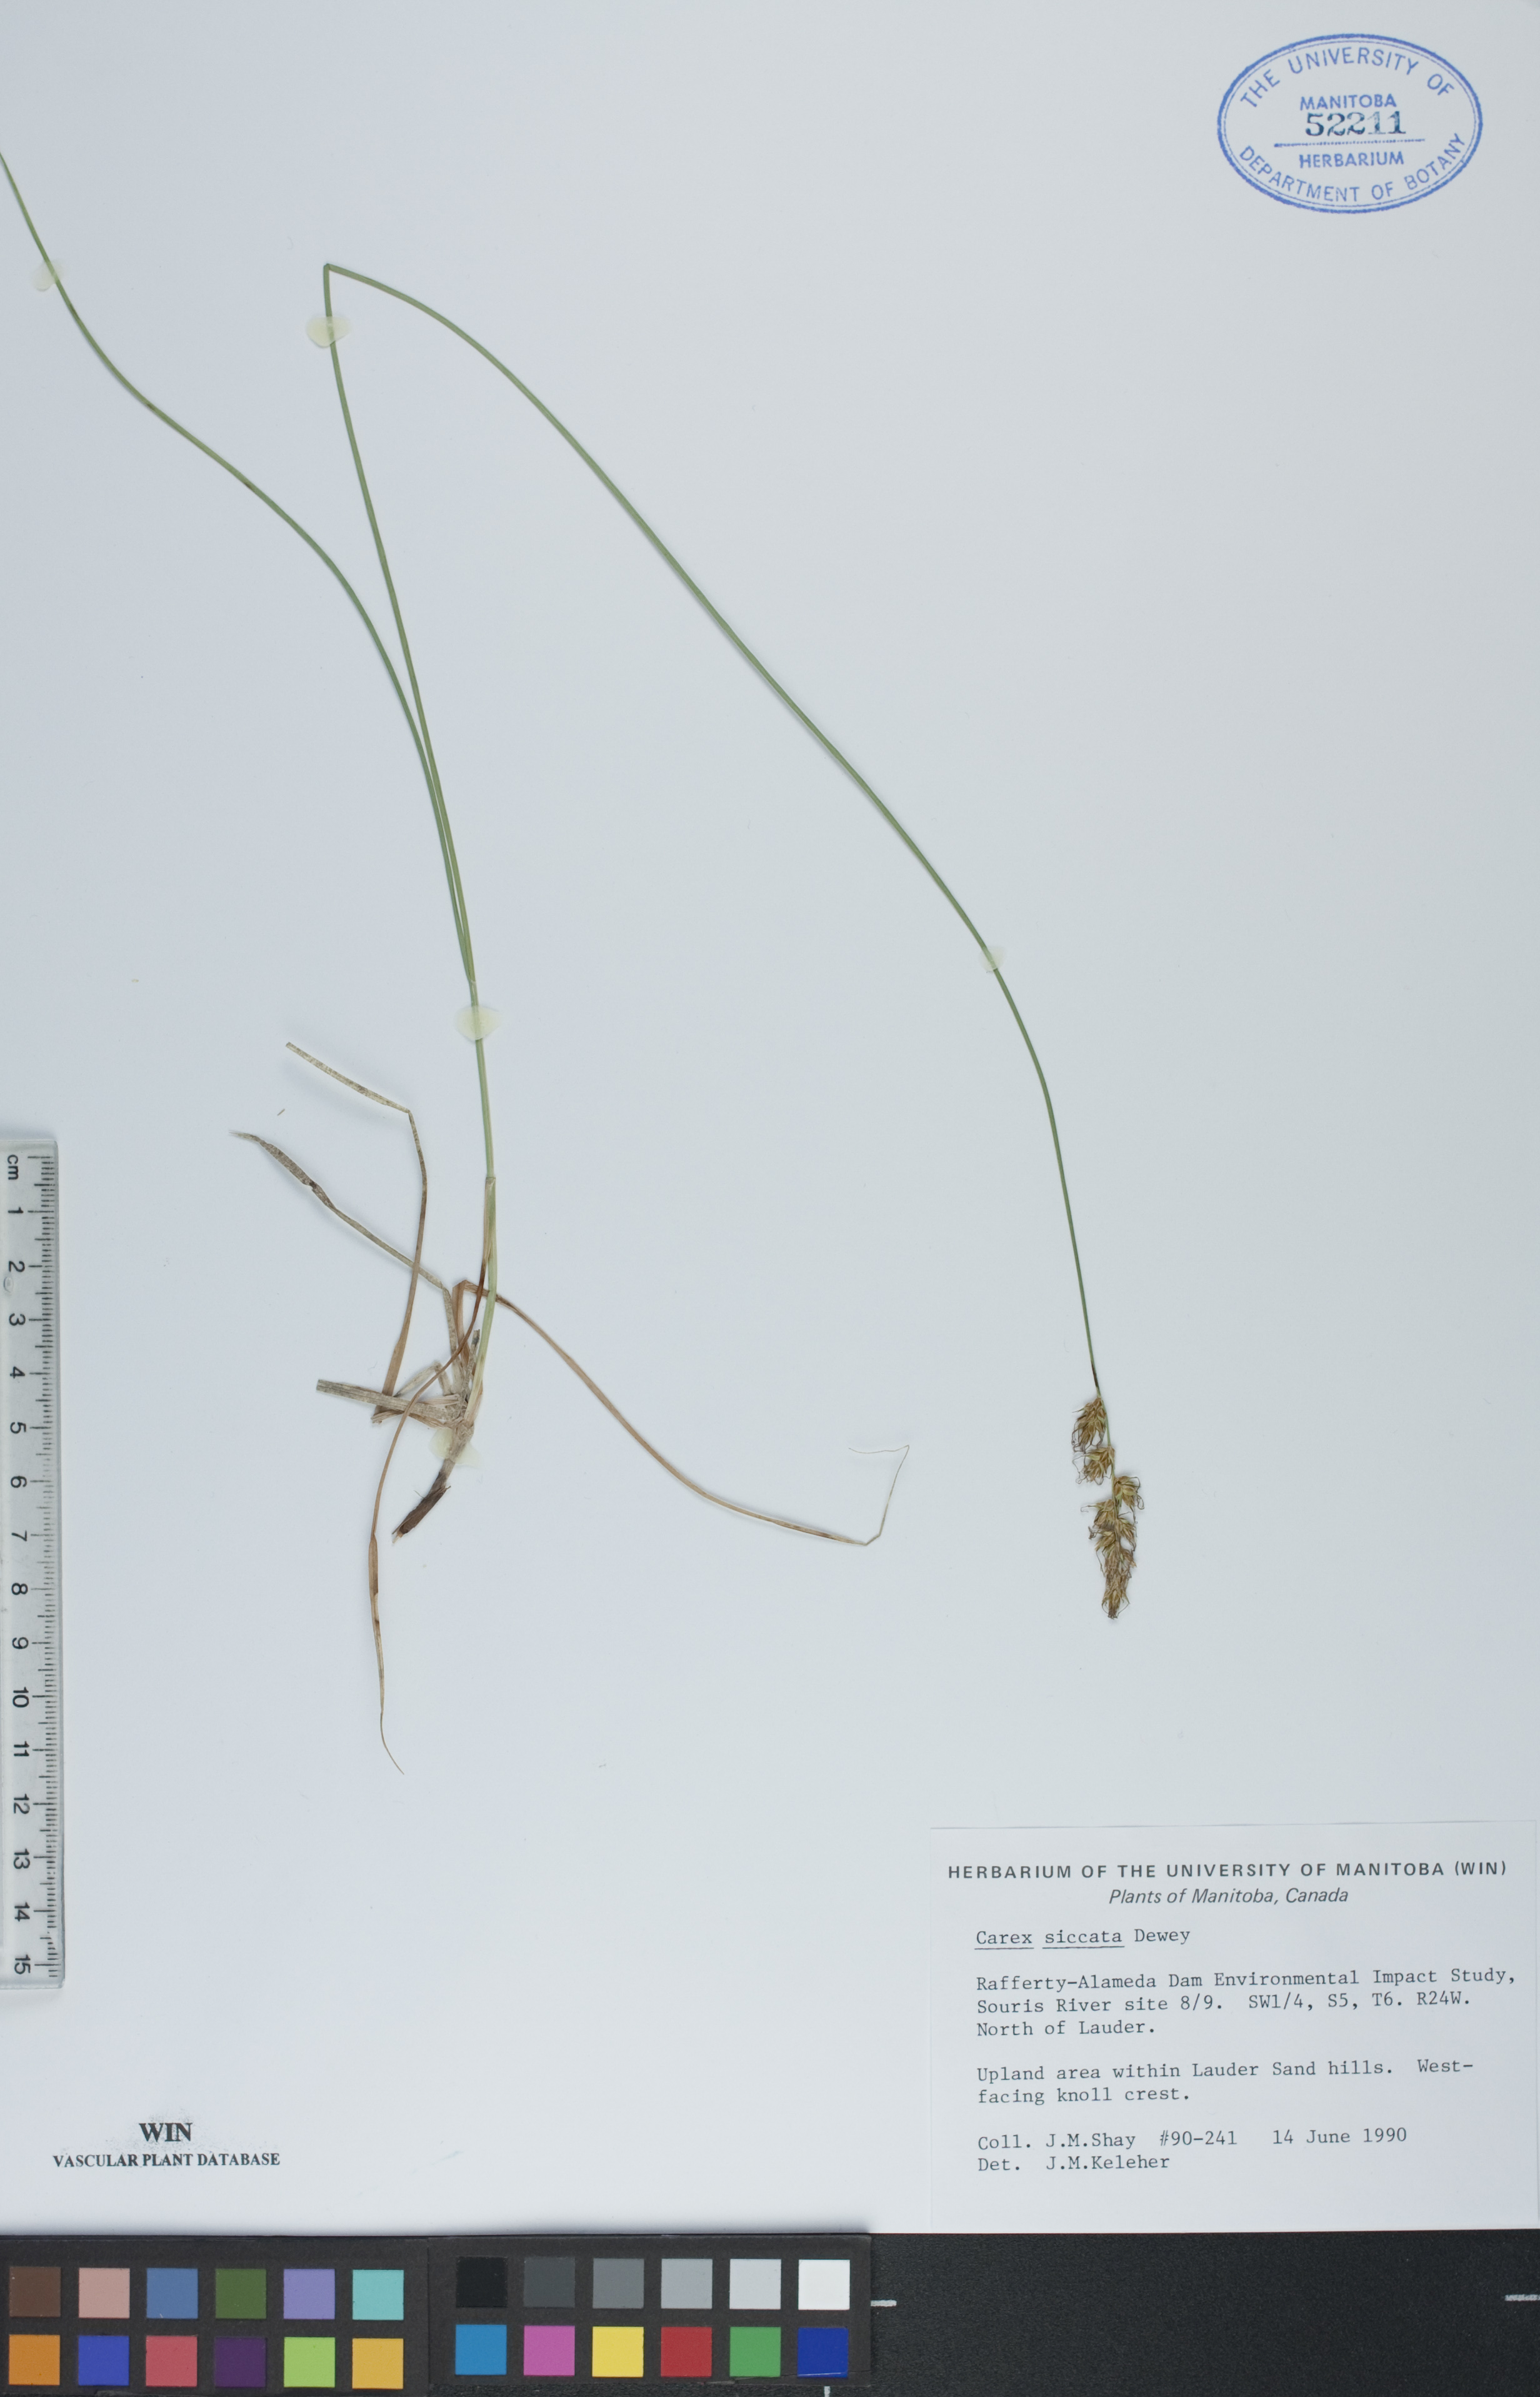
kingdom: Plantae
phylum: Tracheophyta
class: Liliopsida
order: Poales
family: Cyperaceae
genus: Carex
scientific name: Carex siccata
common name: Dry sedge
